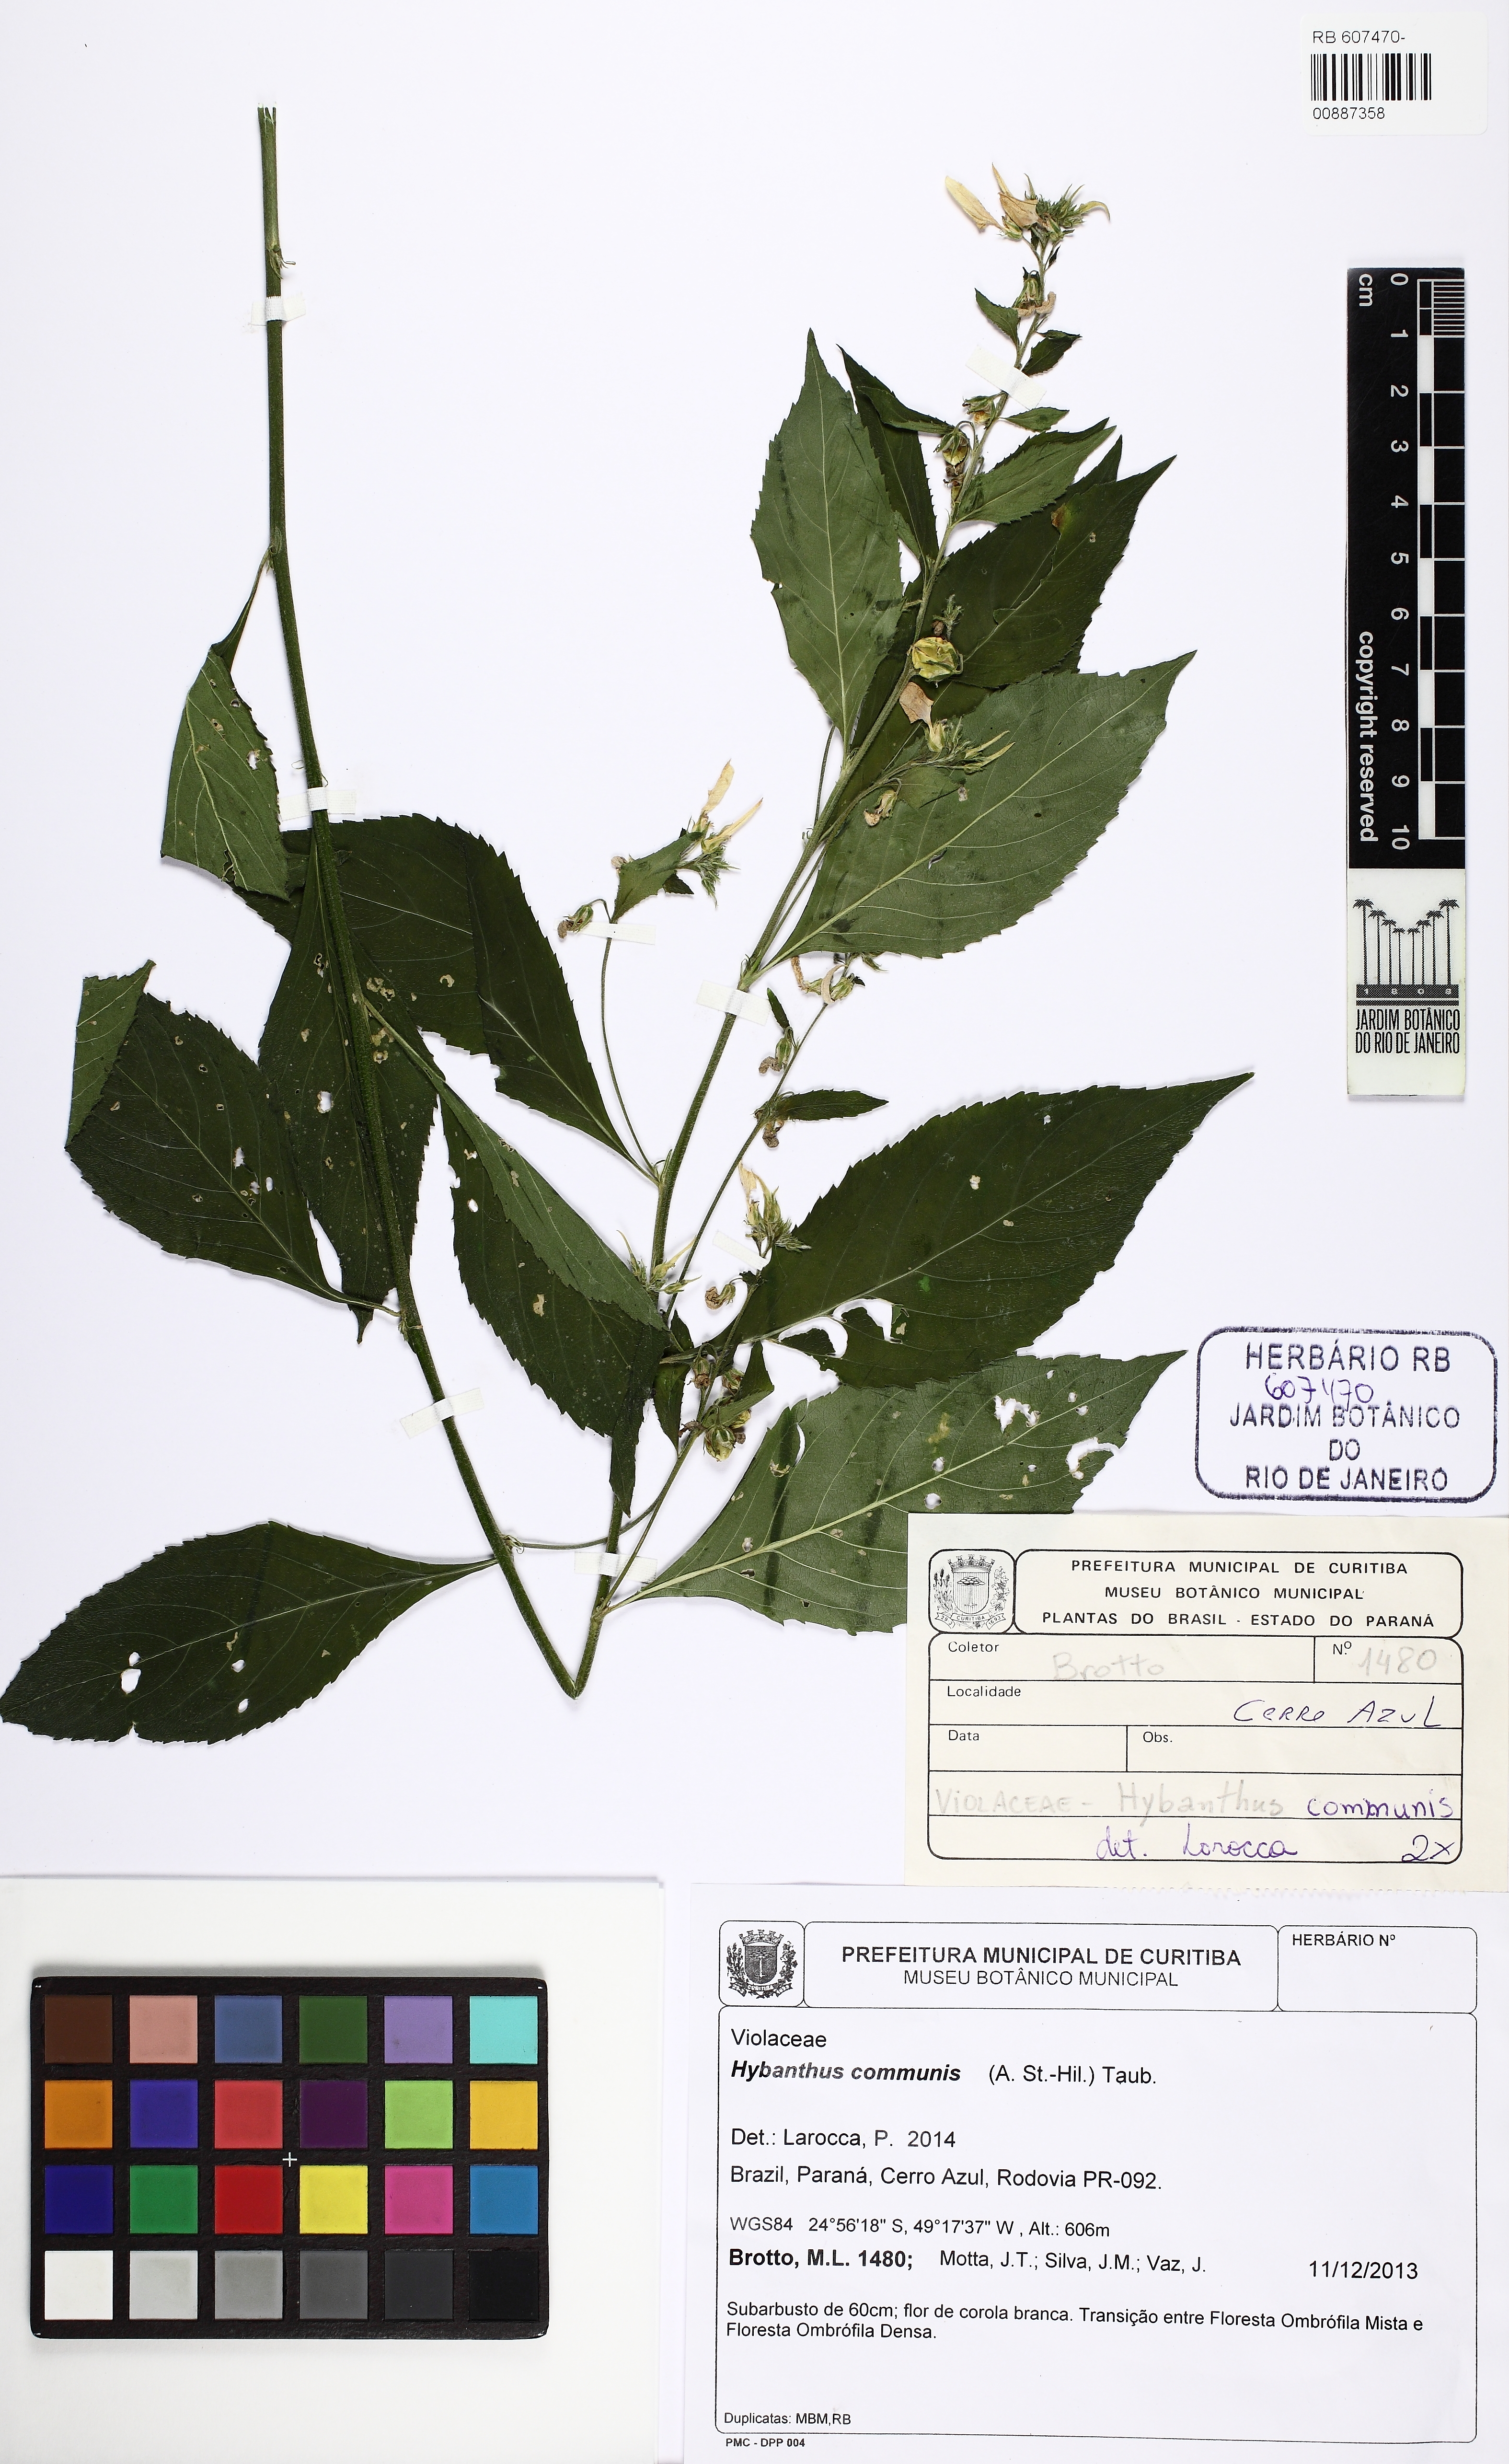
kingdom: Plantae
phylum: Tracheophyta
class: Magnoliopsida
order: Malpighiales
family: Violaceae
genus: Pombalia
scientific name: Pombalia communis
